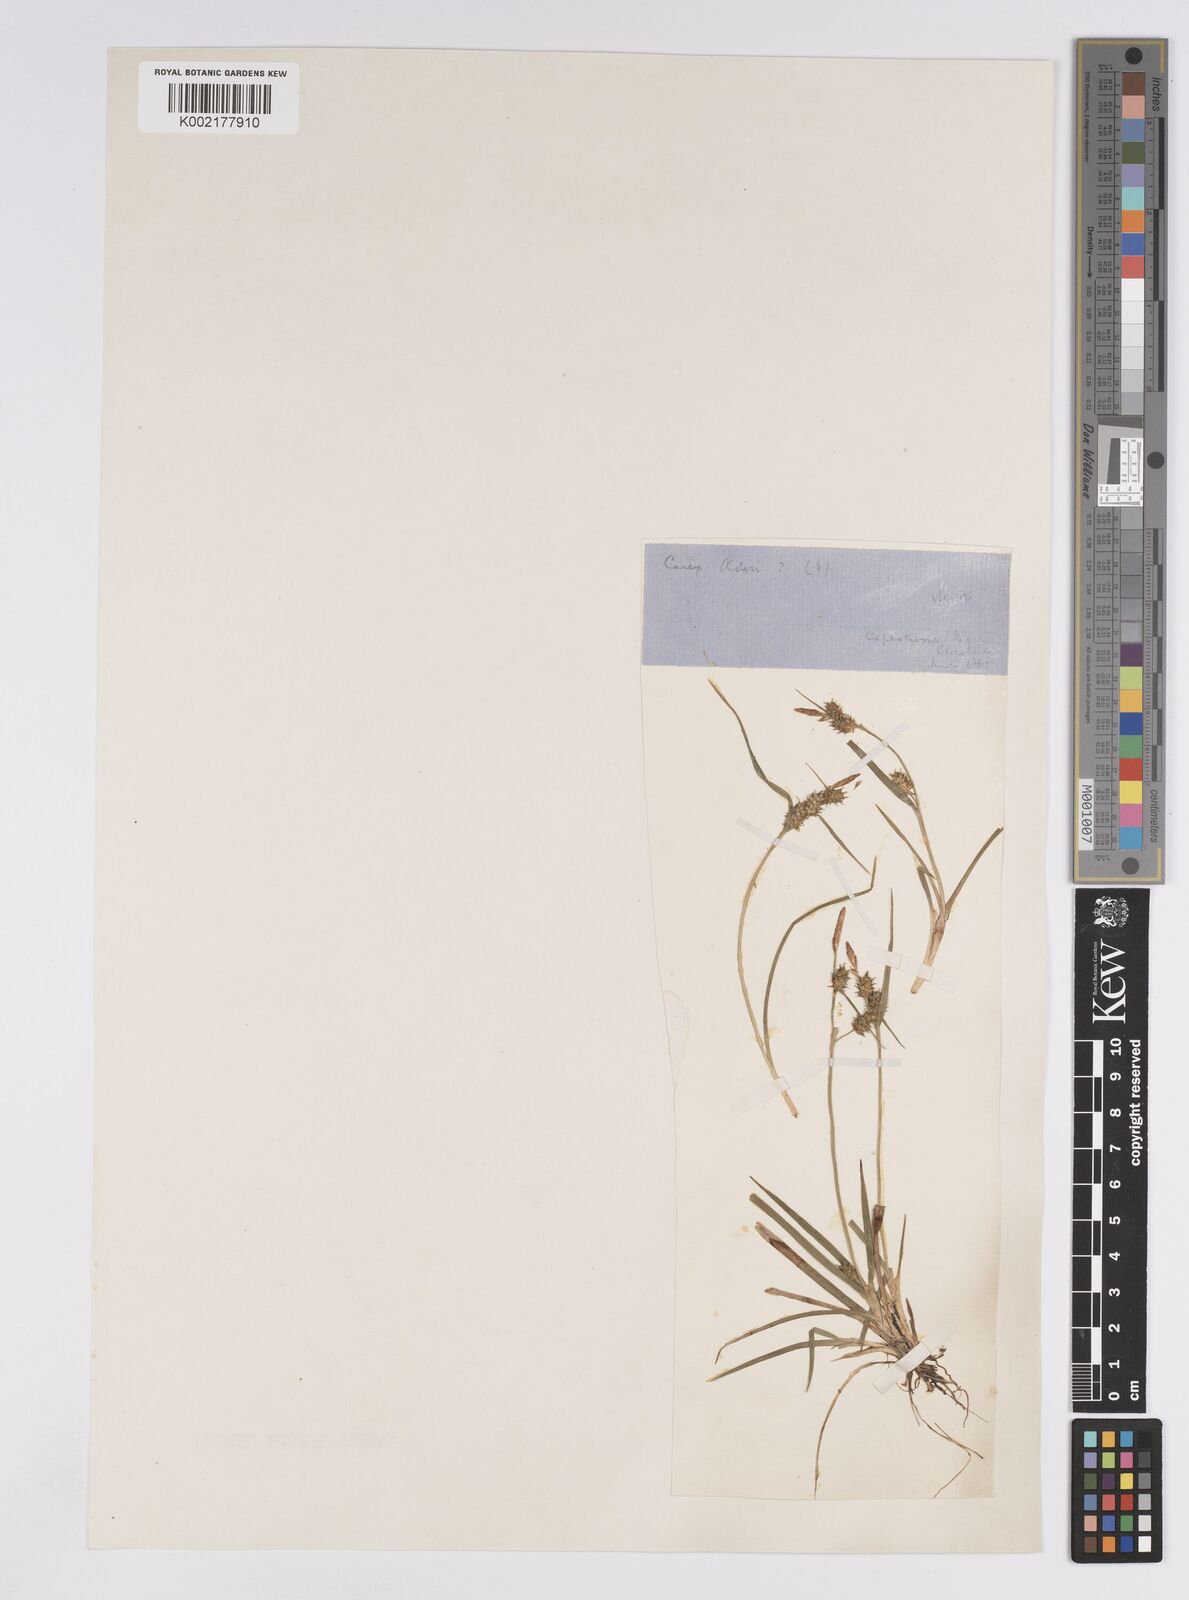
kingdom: Plantae
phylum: Tracheophyta
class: Liliopsida
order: Poales
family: Cyperaceae
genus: Carex
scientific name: Carex demissa
